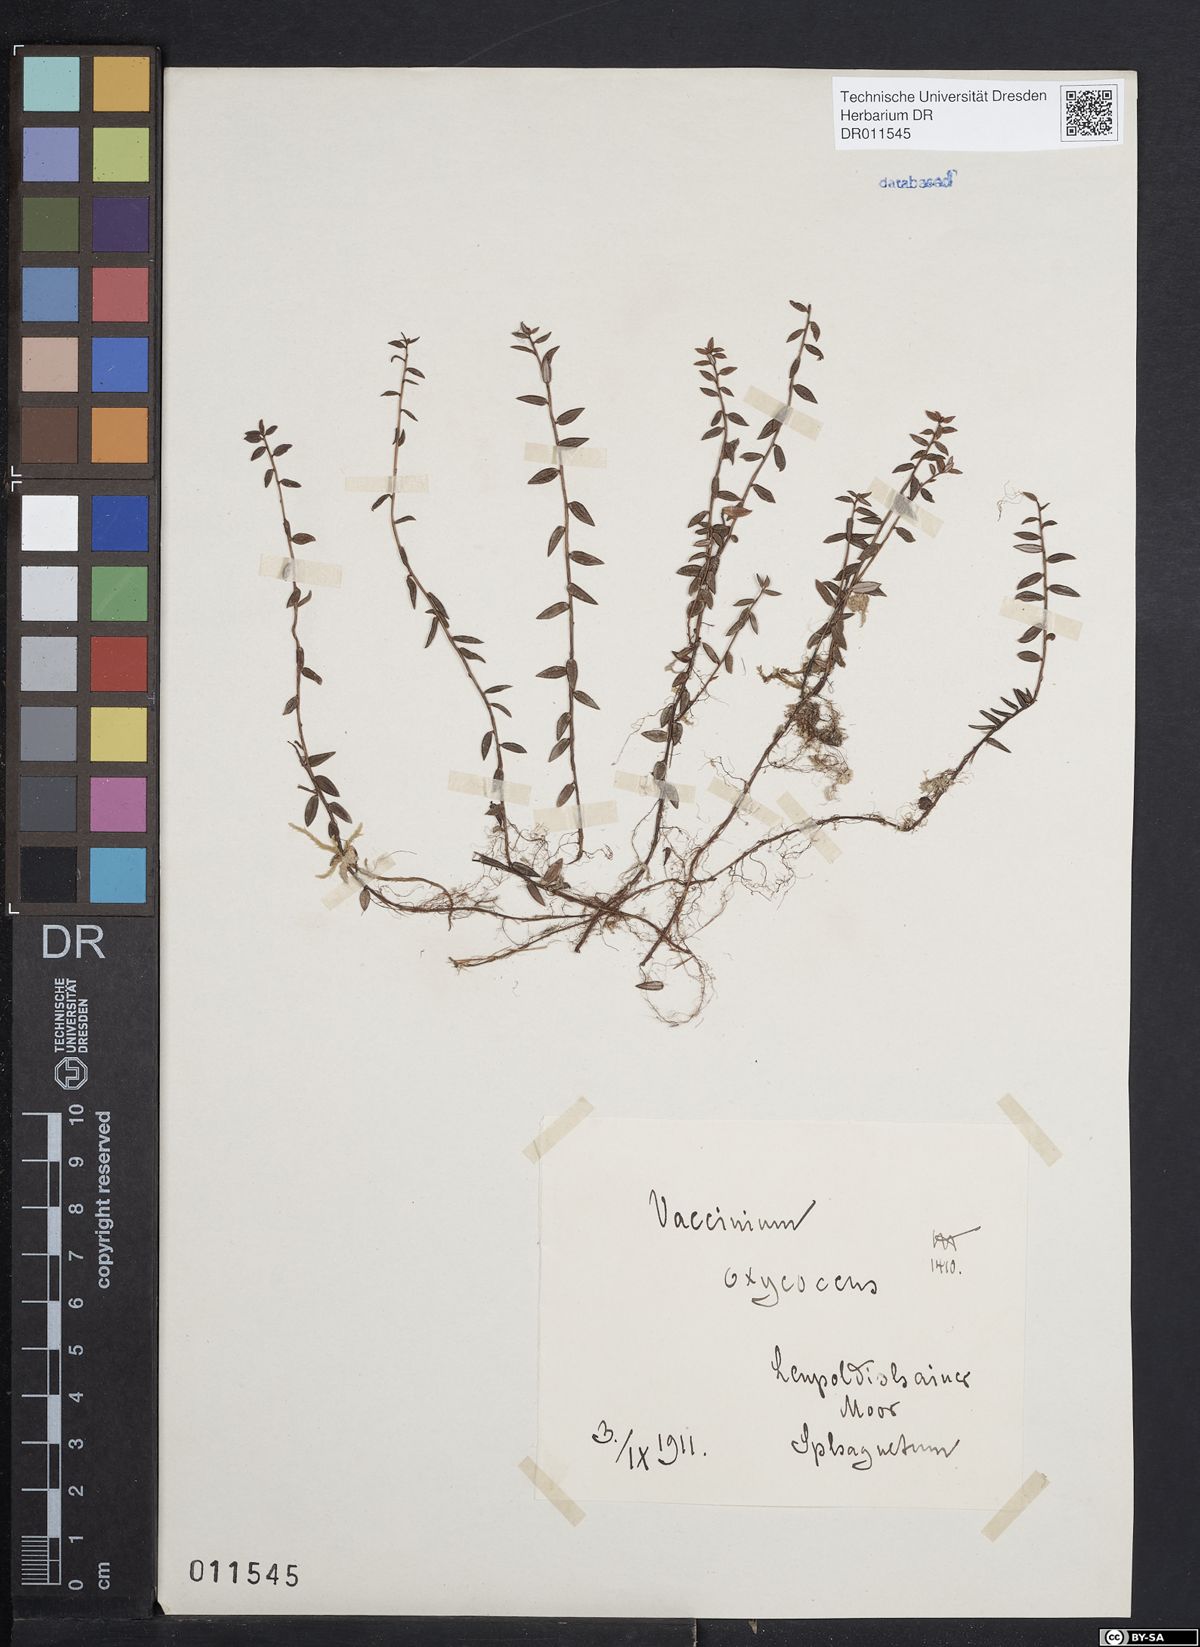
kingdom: Plantae
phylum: Tracheophyta
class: Magnoliopsida
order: Ericales
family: Ericaceae
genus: Vaccinium
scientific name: Vaccinium oxycoccos
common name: Cranberry
